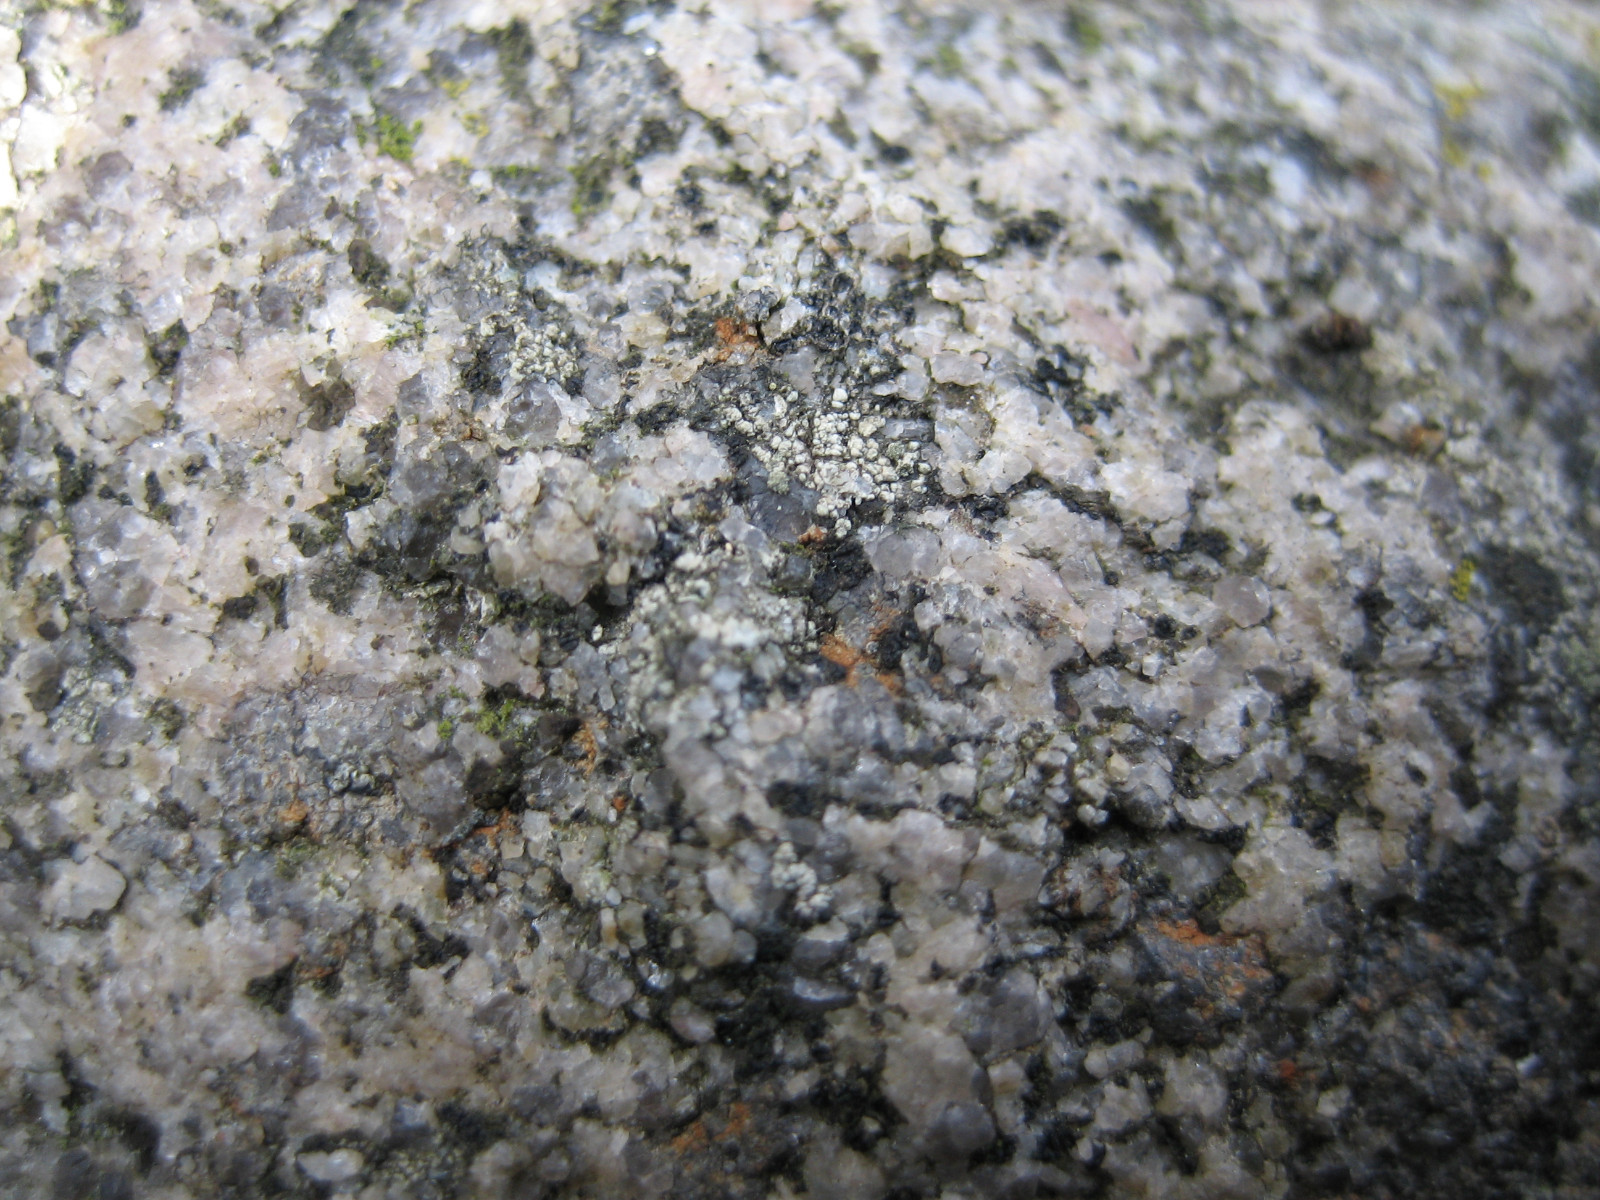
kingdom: Fungi
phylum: Ascomycota
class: Lecanoromycetes
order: Acarosporales
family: Acarosporaceae
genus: Acarospora
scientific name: Acarospora privigna
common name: sort foldekantlav
